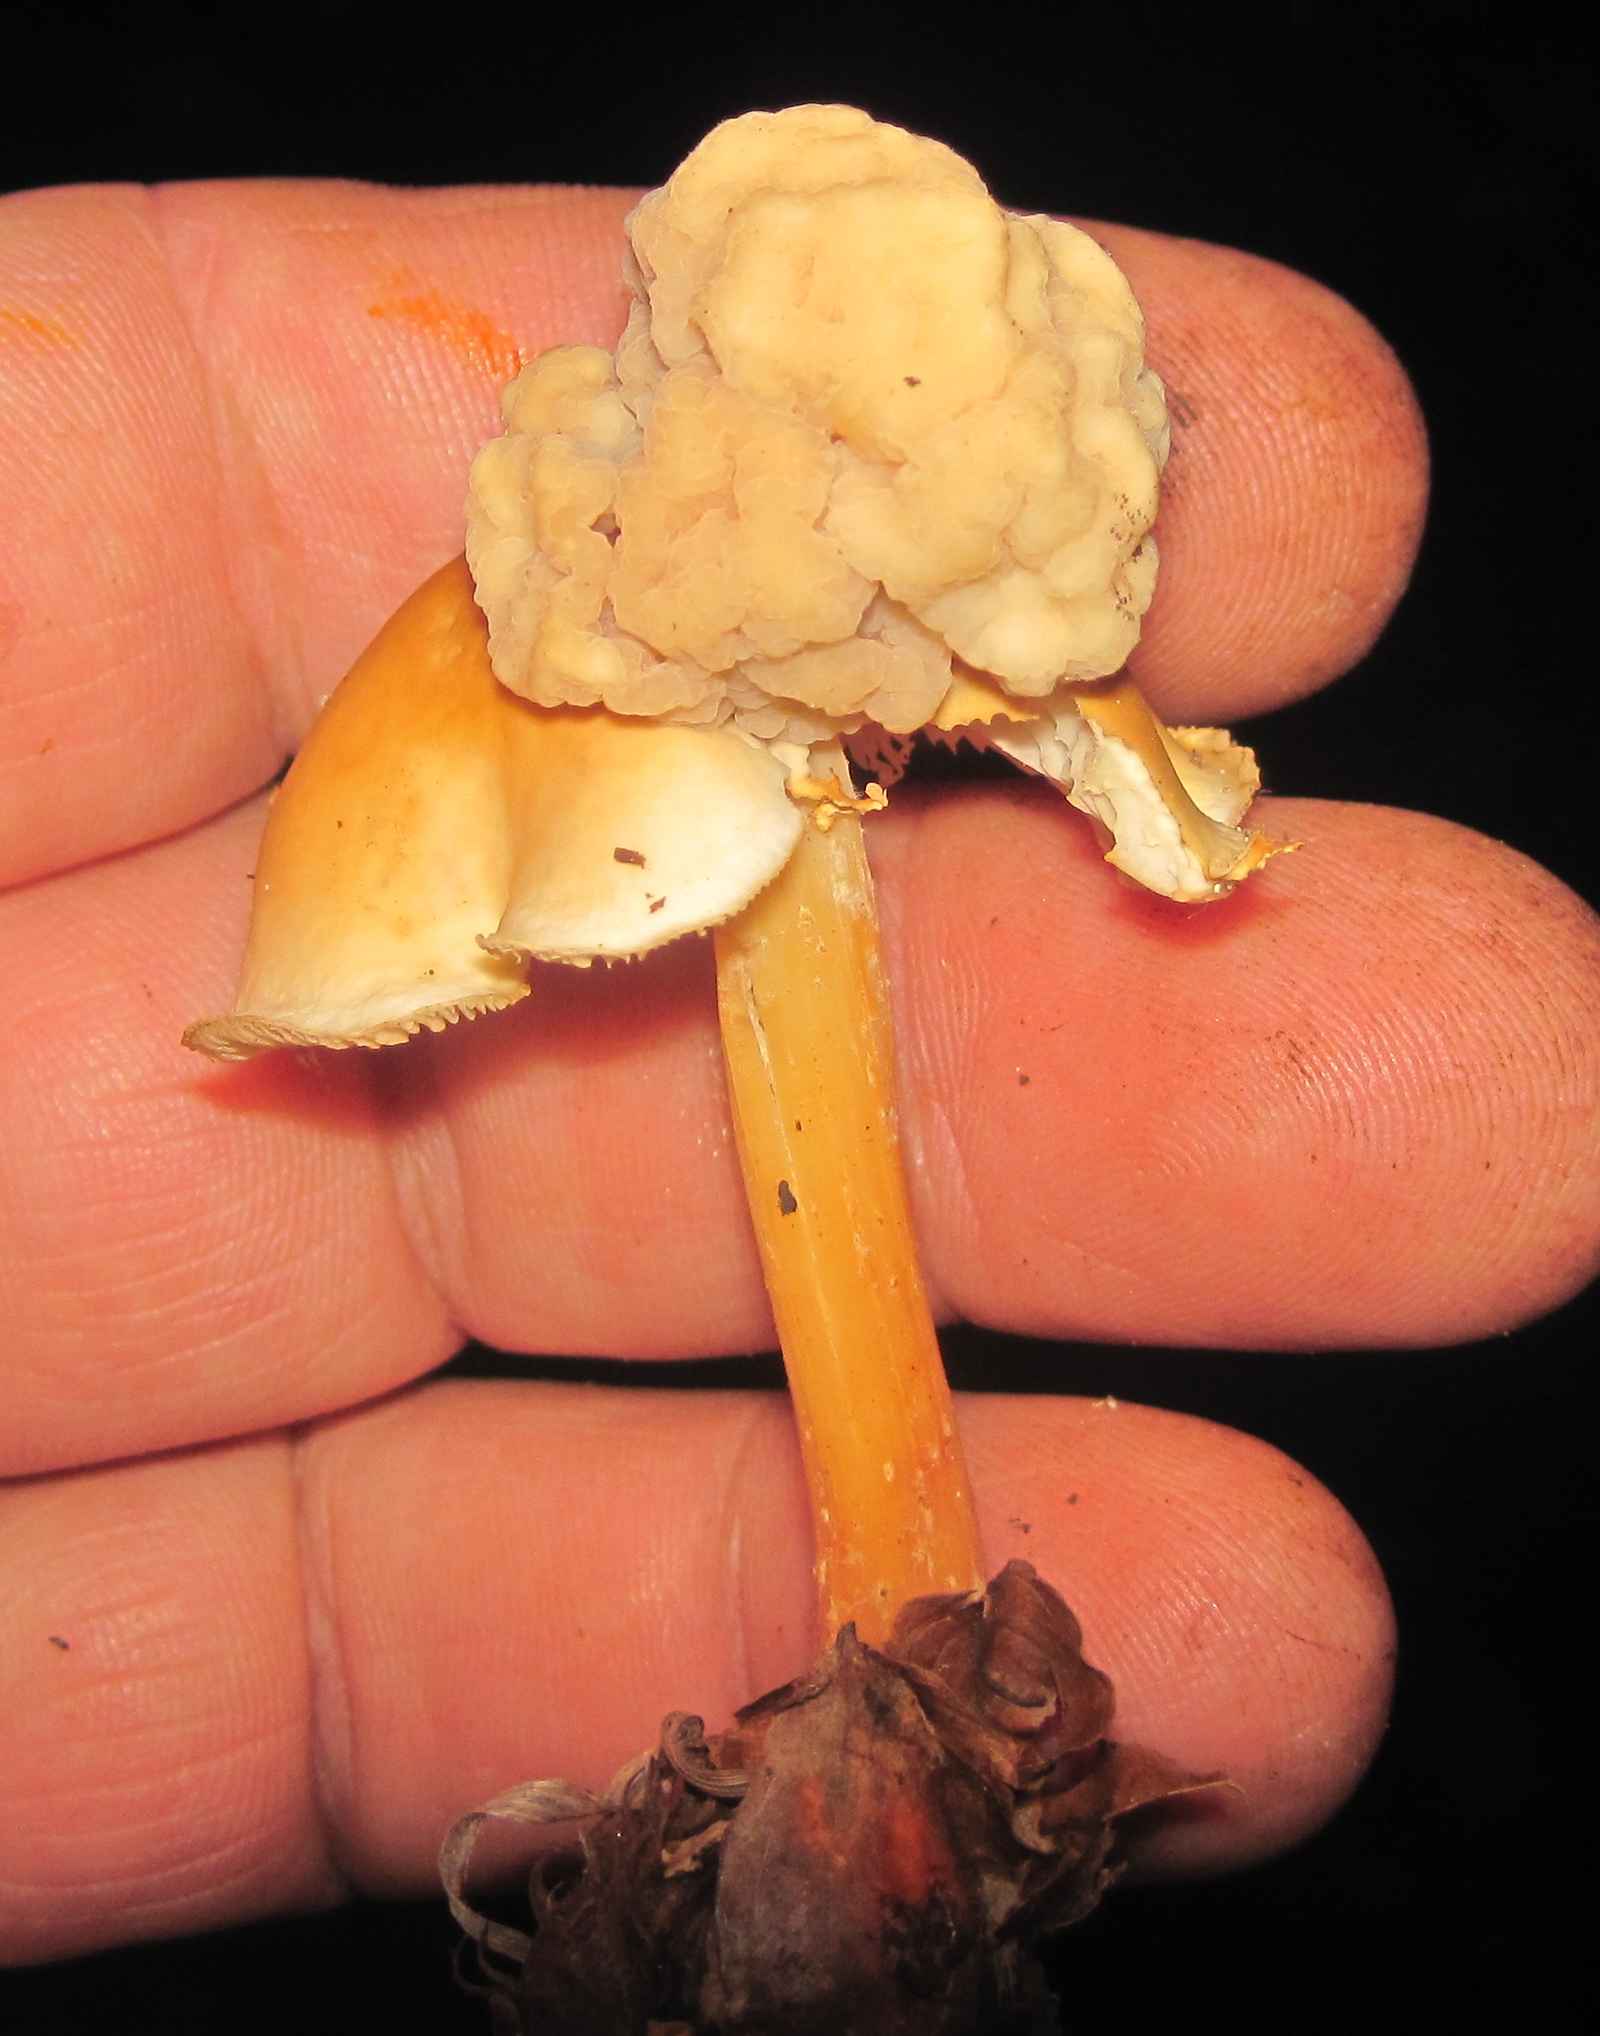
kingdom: Fungi
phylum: Basidiomycota
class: Tremellomycetes
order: Filobasidiales
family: Filobasidiaceae
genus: Syzygospora
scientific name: Syzygospora tumefaciens
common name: fladhatte-snyltehjerne
